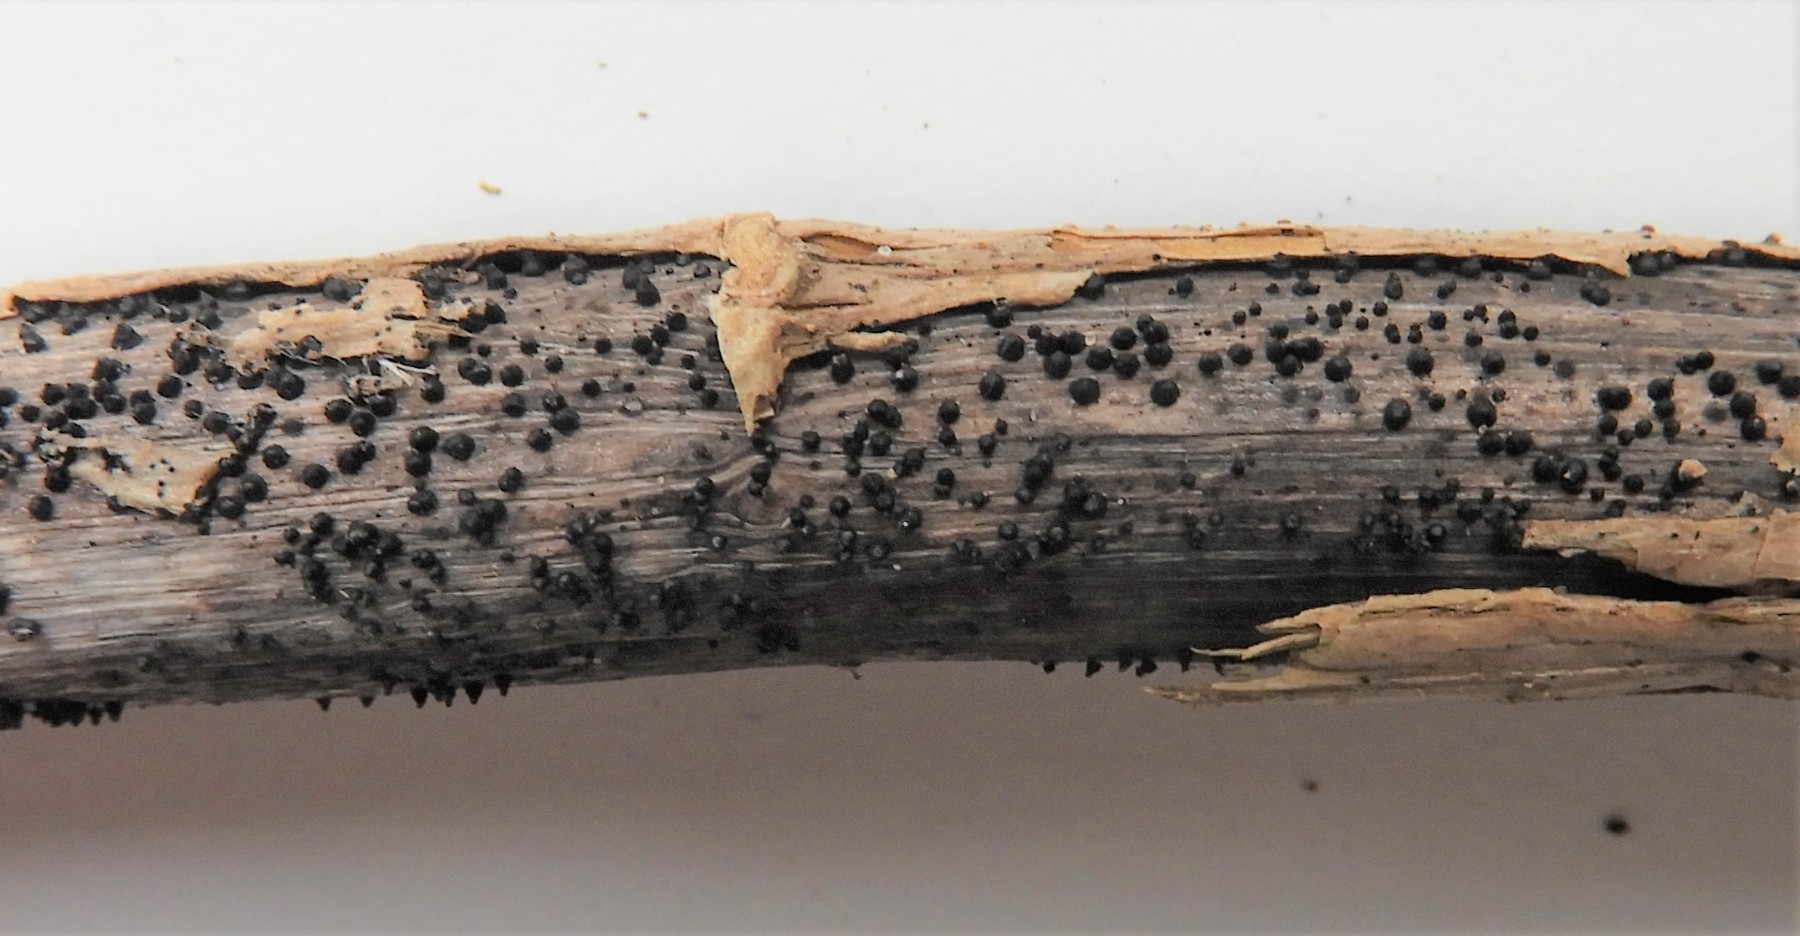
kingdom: Fungi
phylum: Ascomycota
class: Dothideomycetes
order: Pleosporales
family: Leptosphaeriaceae
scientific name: Leptosphaeriaceae
